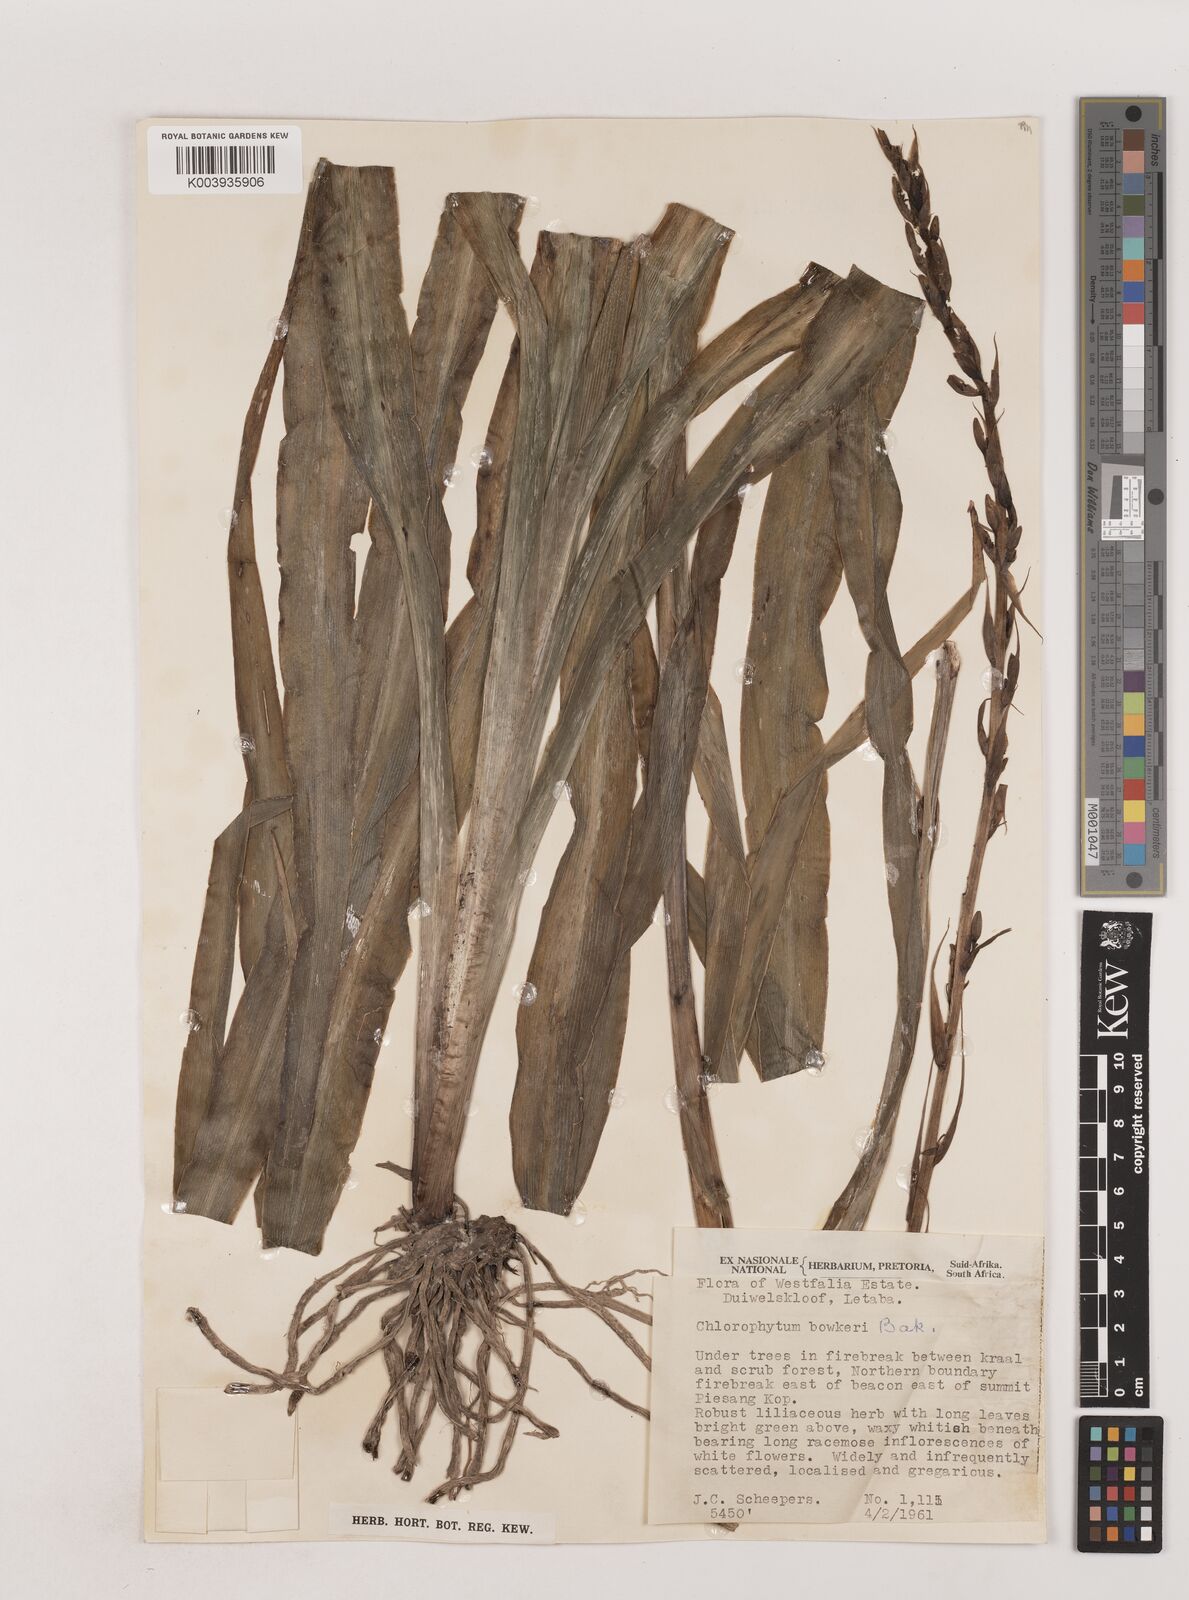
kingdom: Plantae
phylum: Tracheophyta
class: Liliopsida
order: Asparagales
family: Asparagaceae
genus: Chlorophytum
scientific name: Chlorophytum bowkeri
